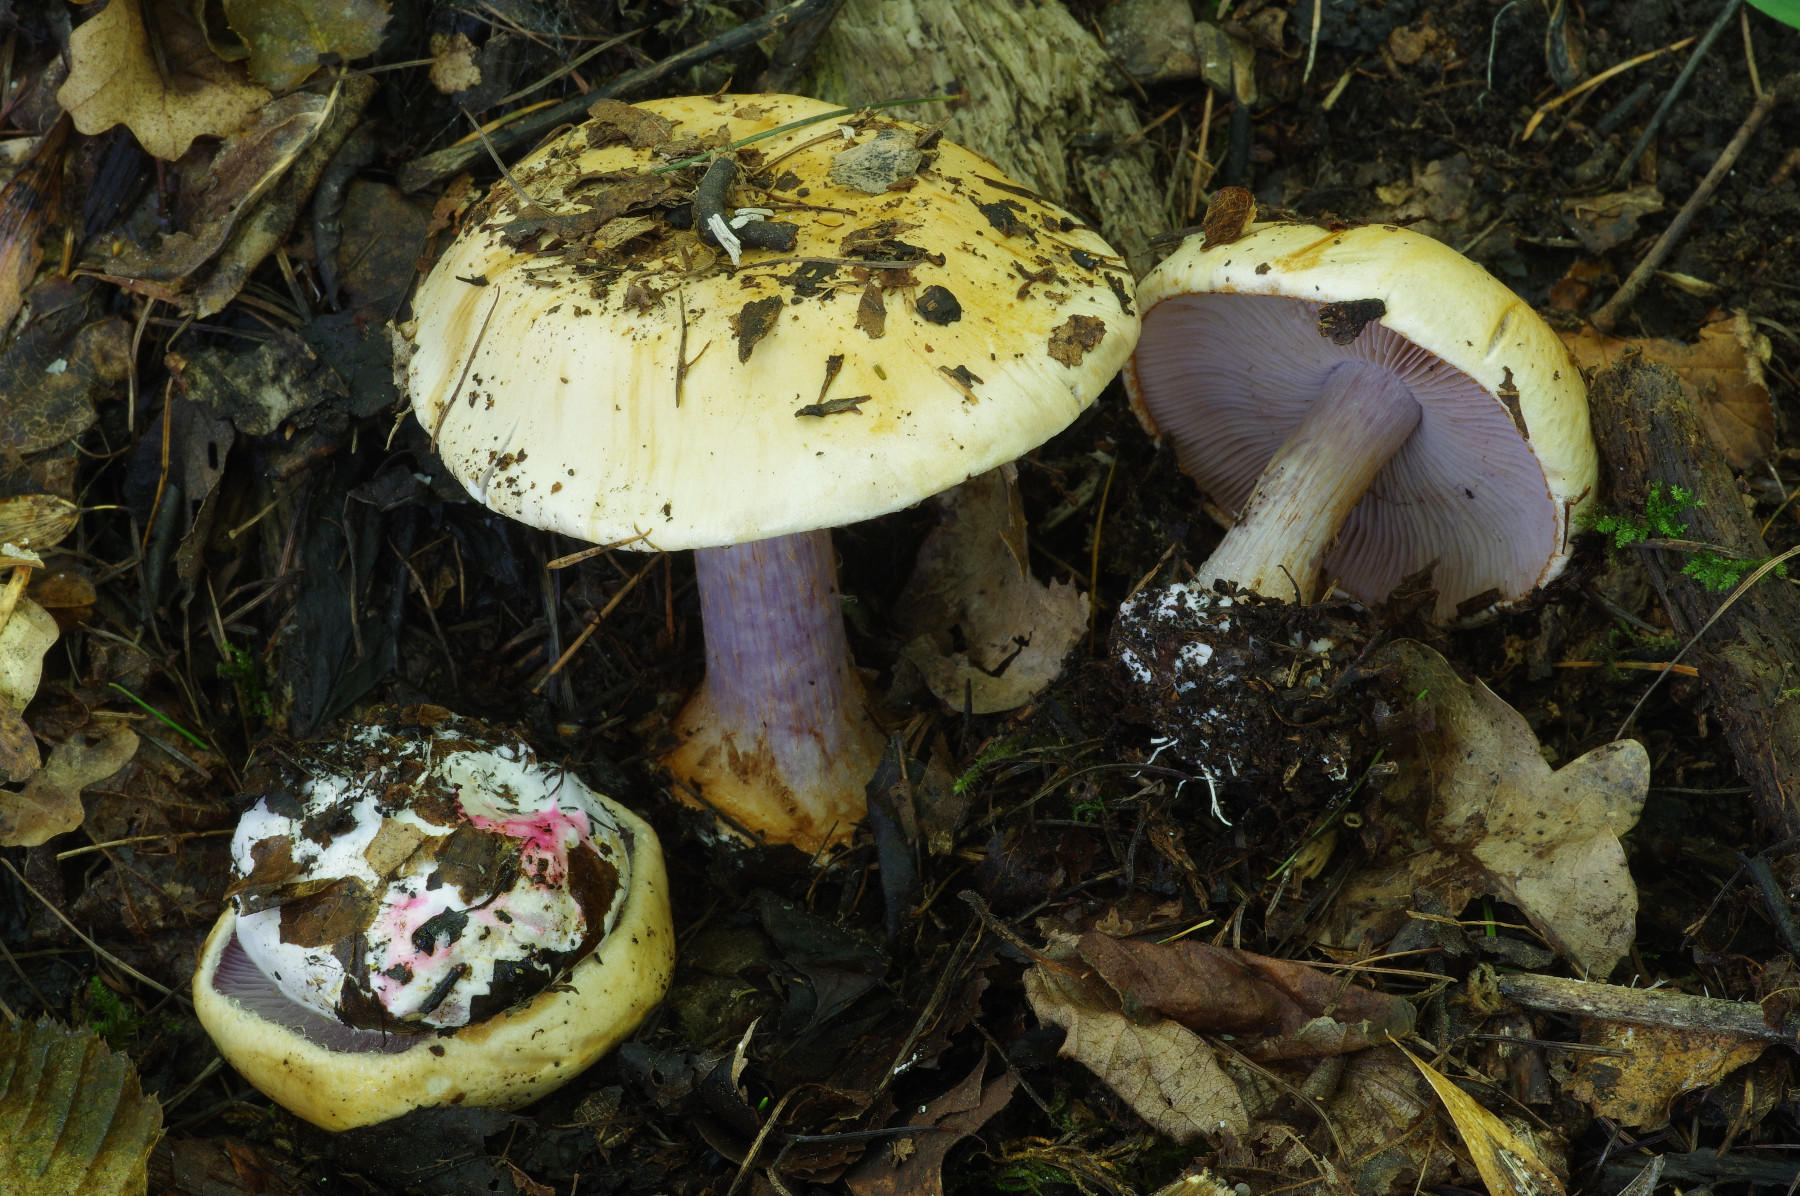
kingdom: Fungi
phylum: Basidiomycota
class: Agaricomycetes
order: Agaricales
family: Cortinariaceae
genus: Calonarius
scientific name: Calonarius insignibulbus
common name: kridt-slørhat
